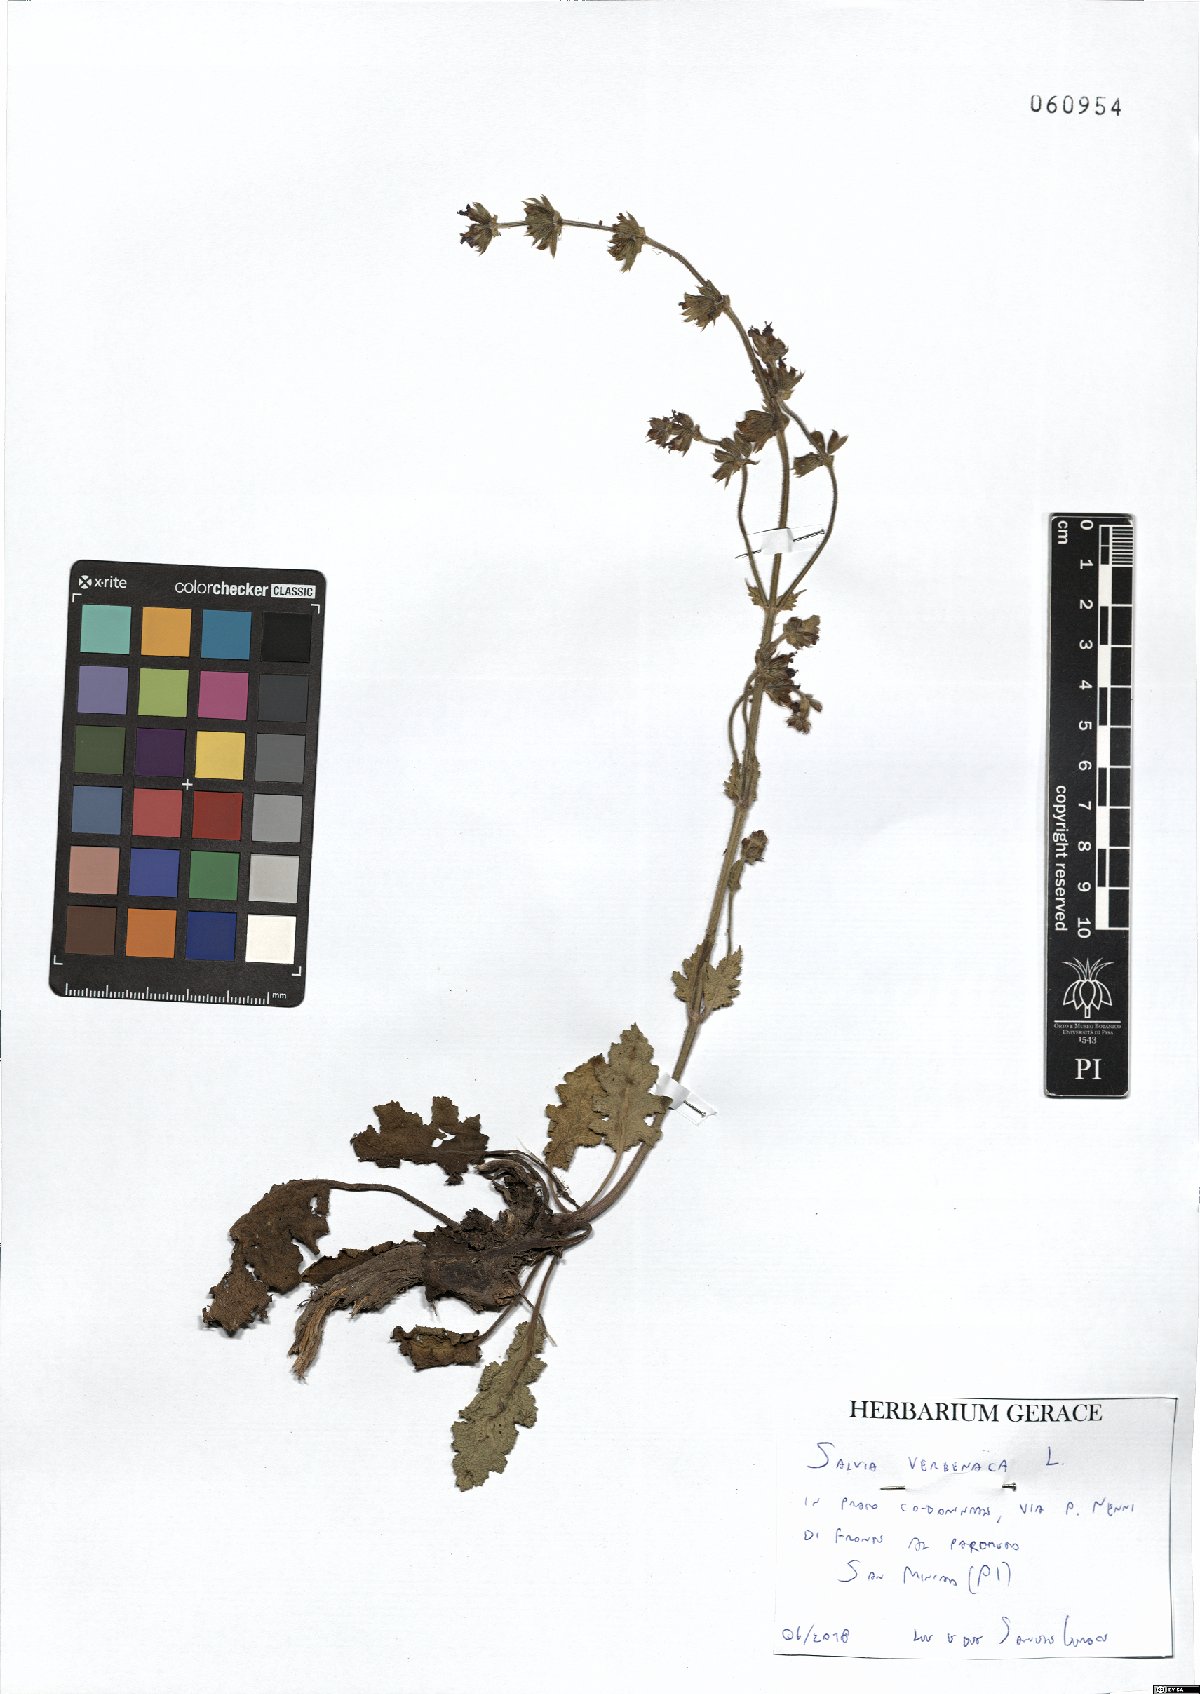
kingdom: Plantae
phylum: Tracheophyta
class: Magnoliopsida
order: Lamiales
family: Lamiaceae
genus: Salvia
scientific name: Salvia verbenaca
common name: Wild clary
